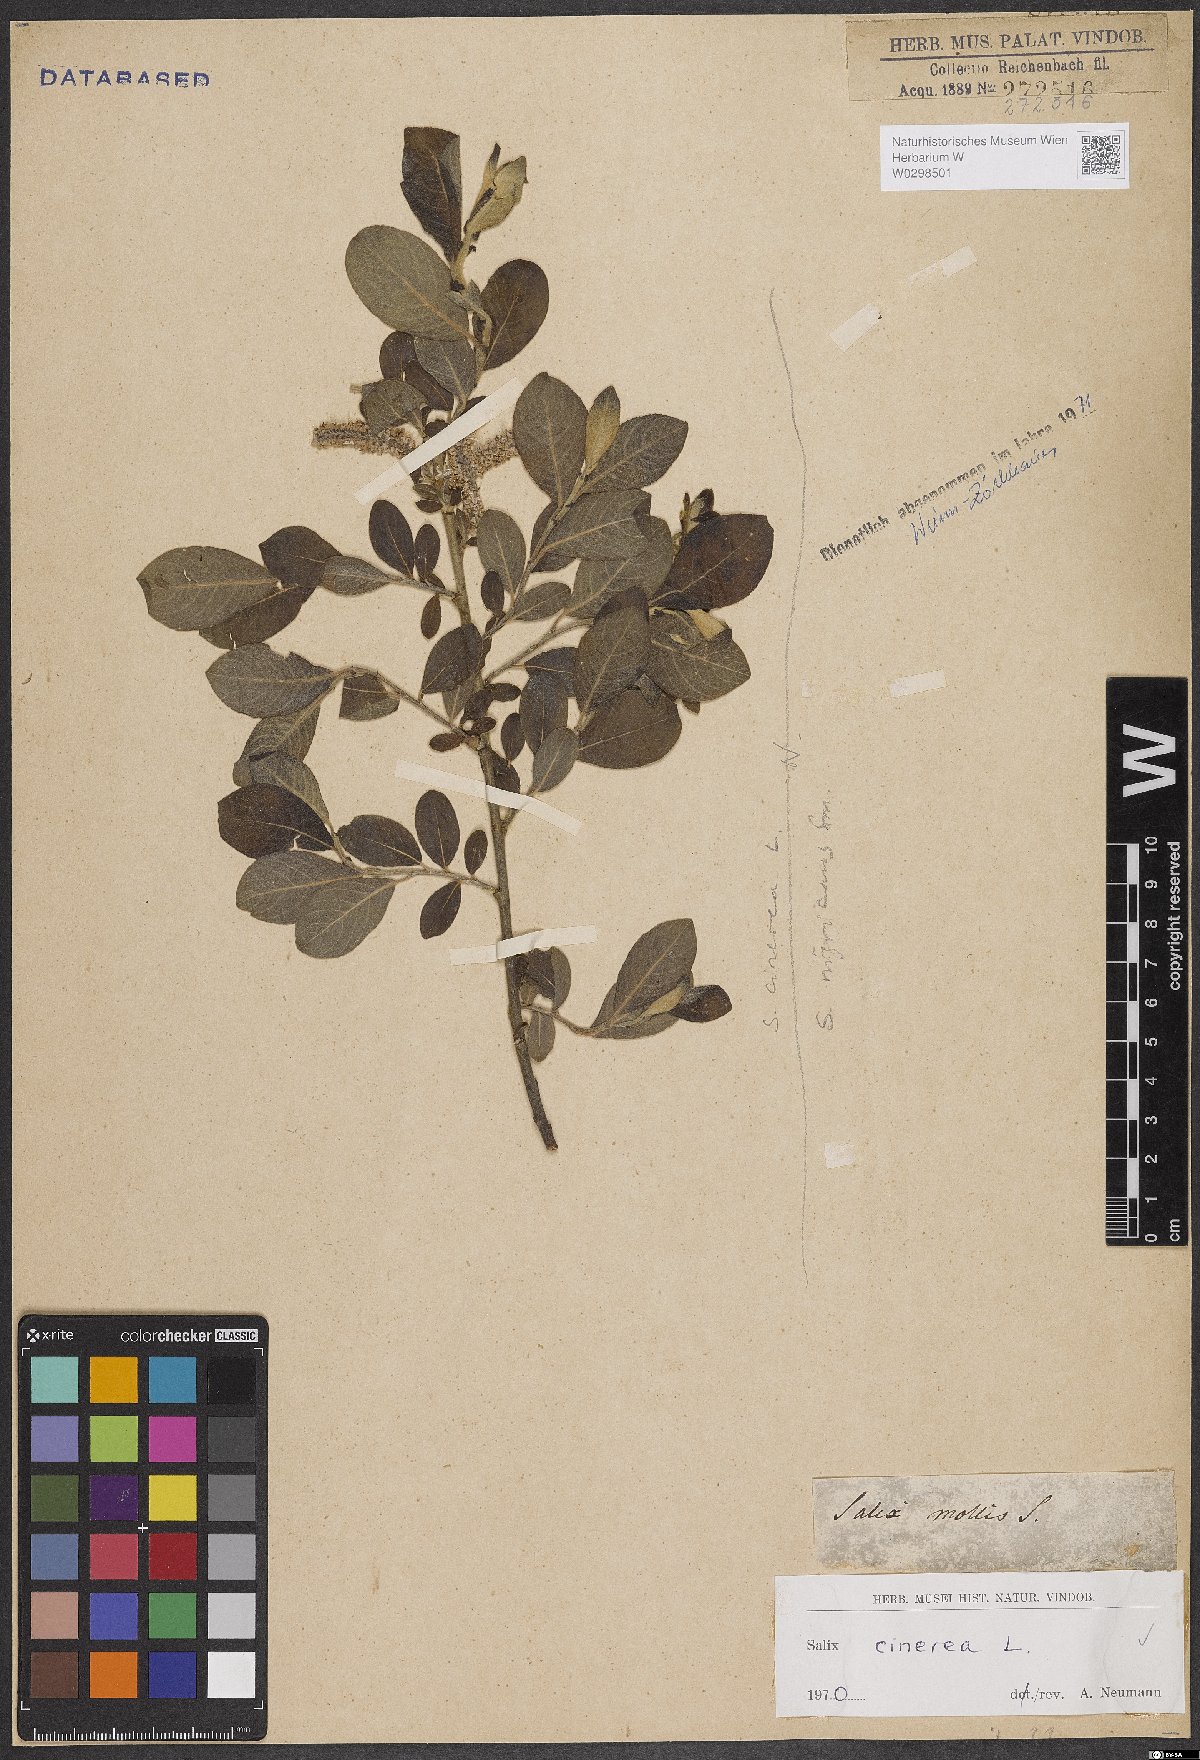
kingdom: Plantae
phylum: Tracheophyta
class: Magnoliopsida
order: Malpighiales
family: Salicaceae
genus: Salix
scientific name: Salix cinerea
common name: Common sallow
